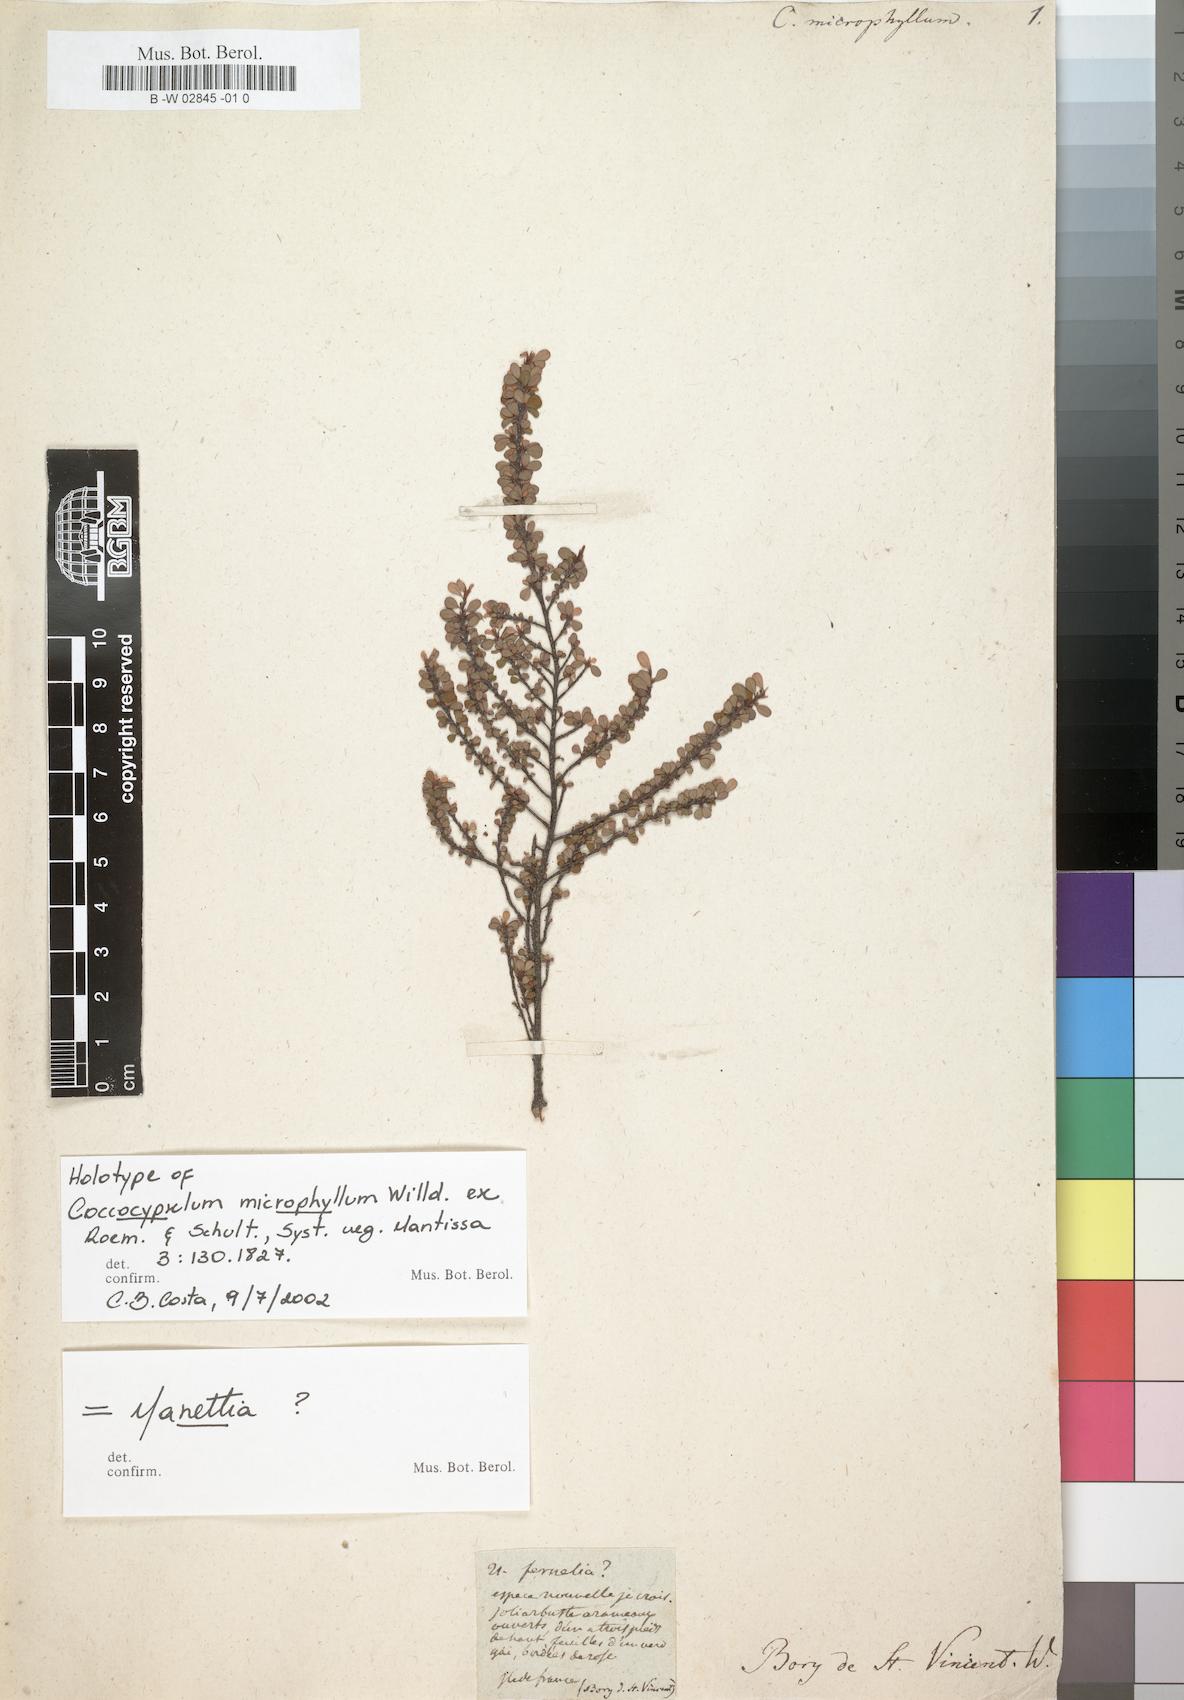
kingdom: Plantae
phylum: Tracheophyta
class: Magnoliopsida
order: Gentianales
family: Rubiaceae
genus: Coccocypselum
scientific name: Coccocypselum microphyllum
